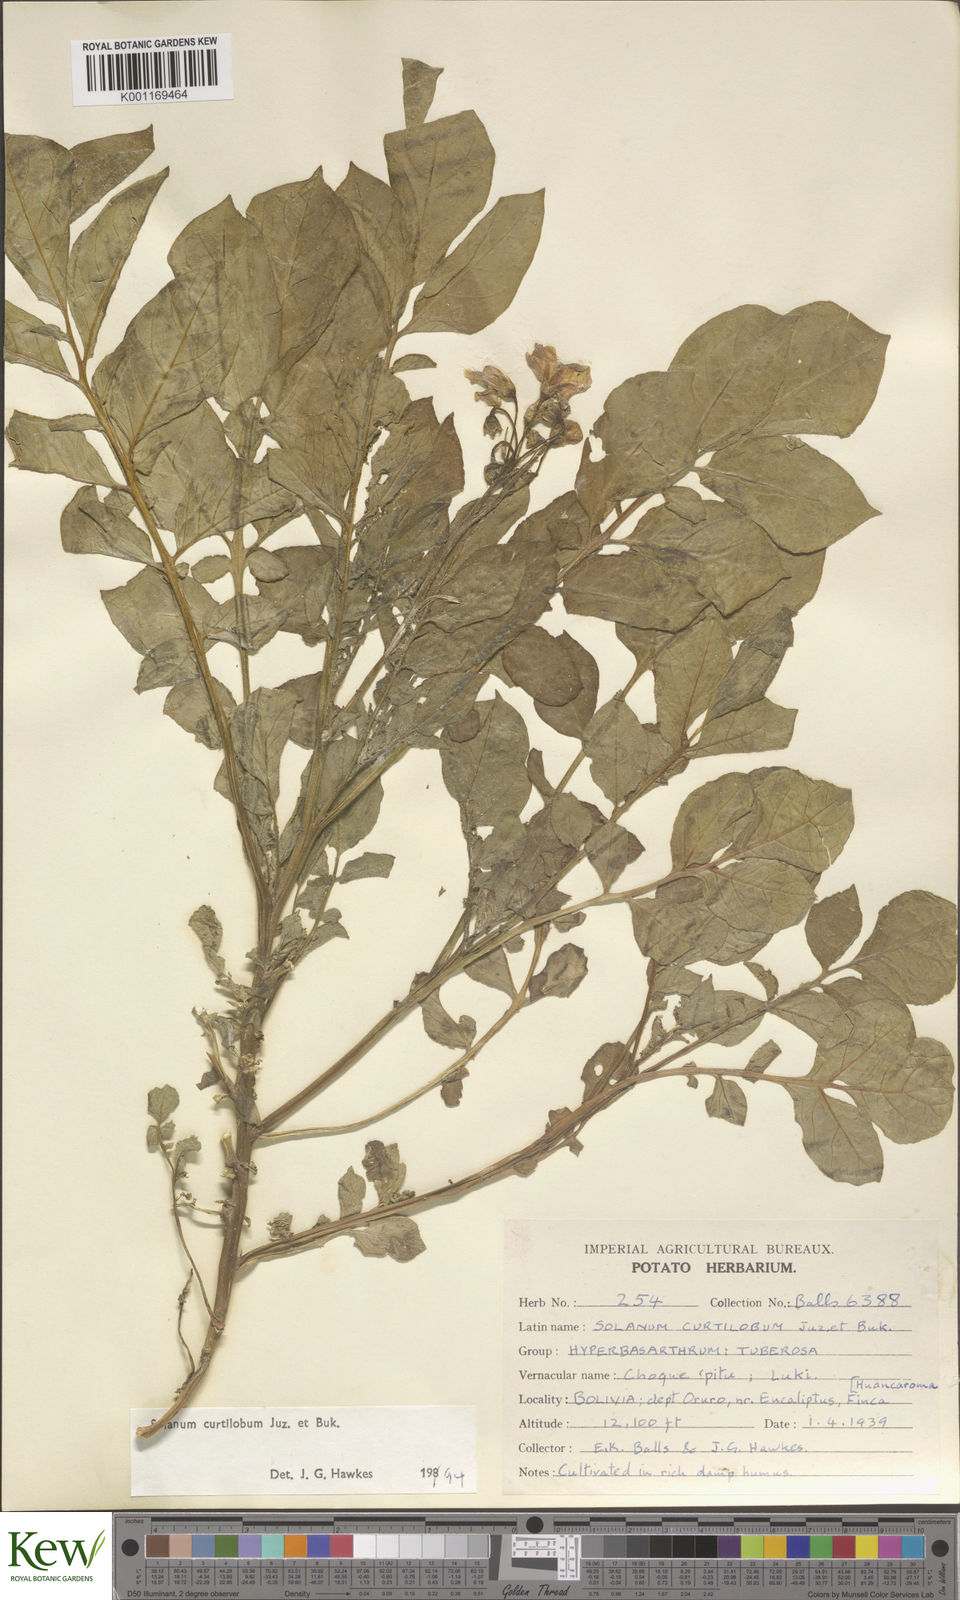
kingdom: Plantae
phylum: Tracheophyta
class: Magnoliopsida
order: Solanales
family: Solanaceae
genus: Solanum
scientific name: Solanum curtilobum
